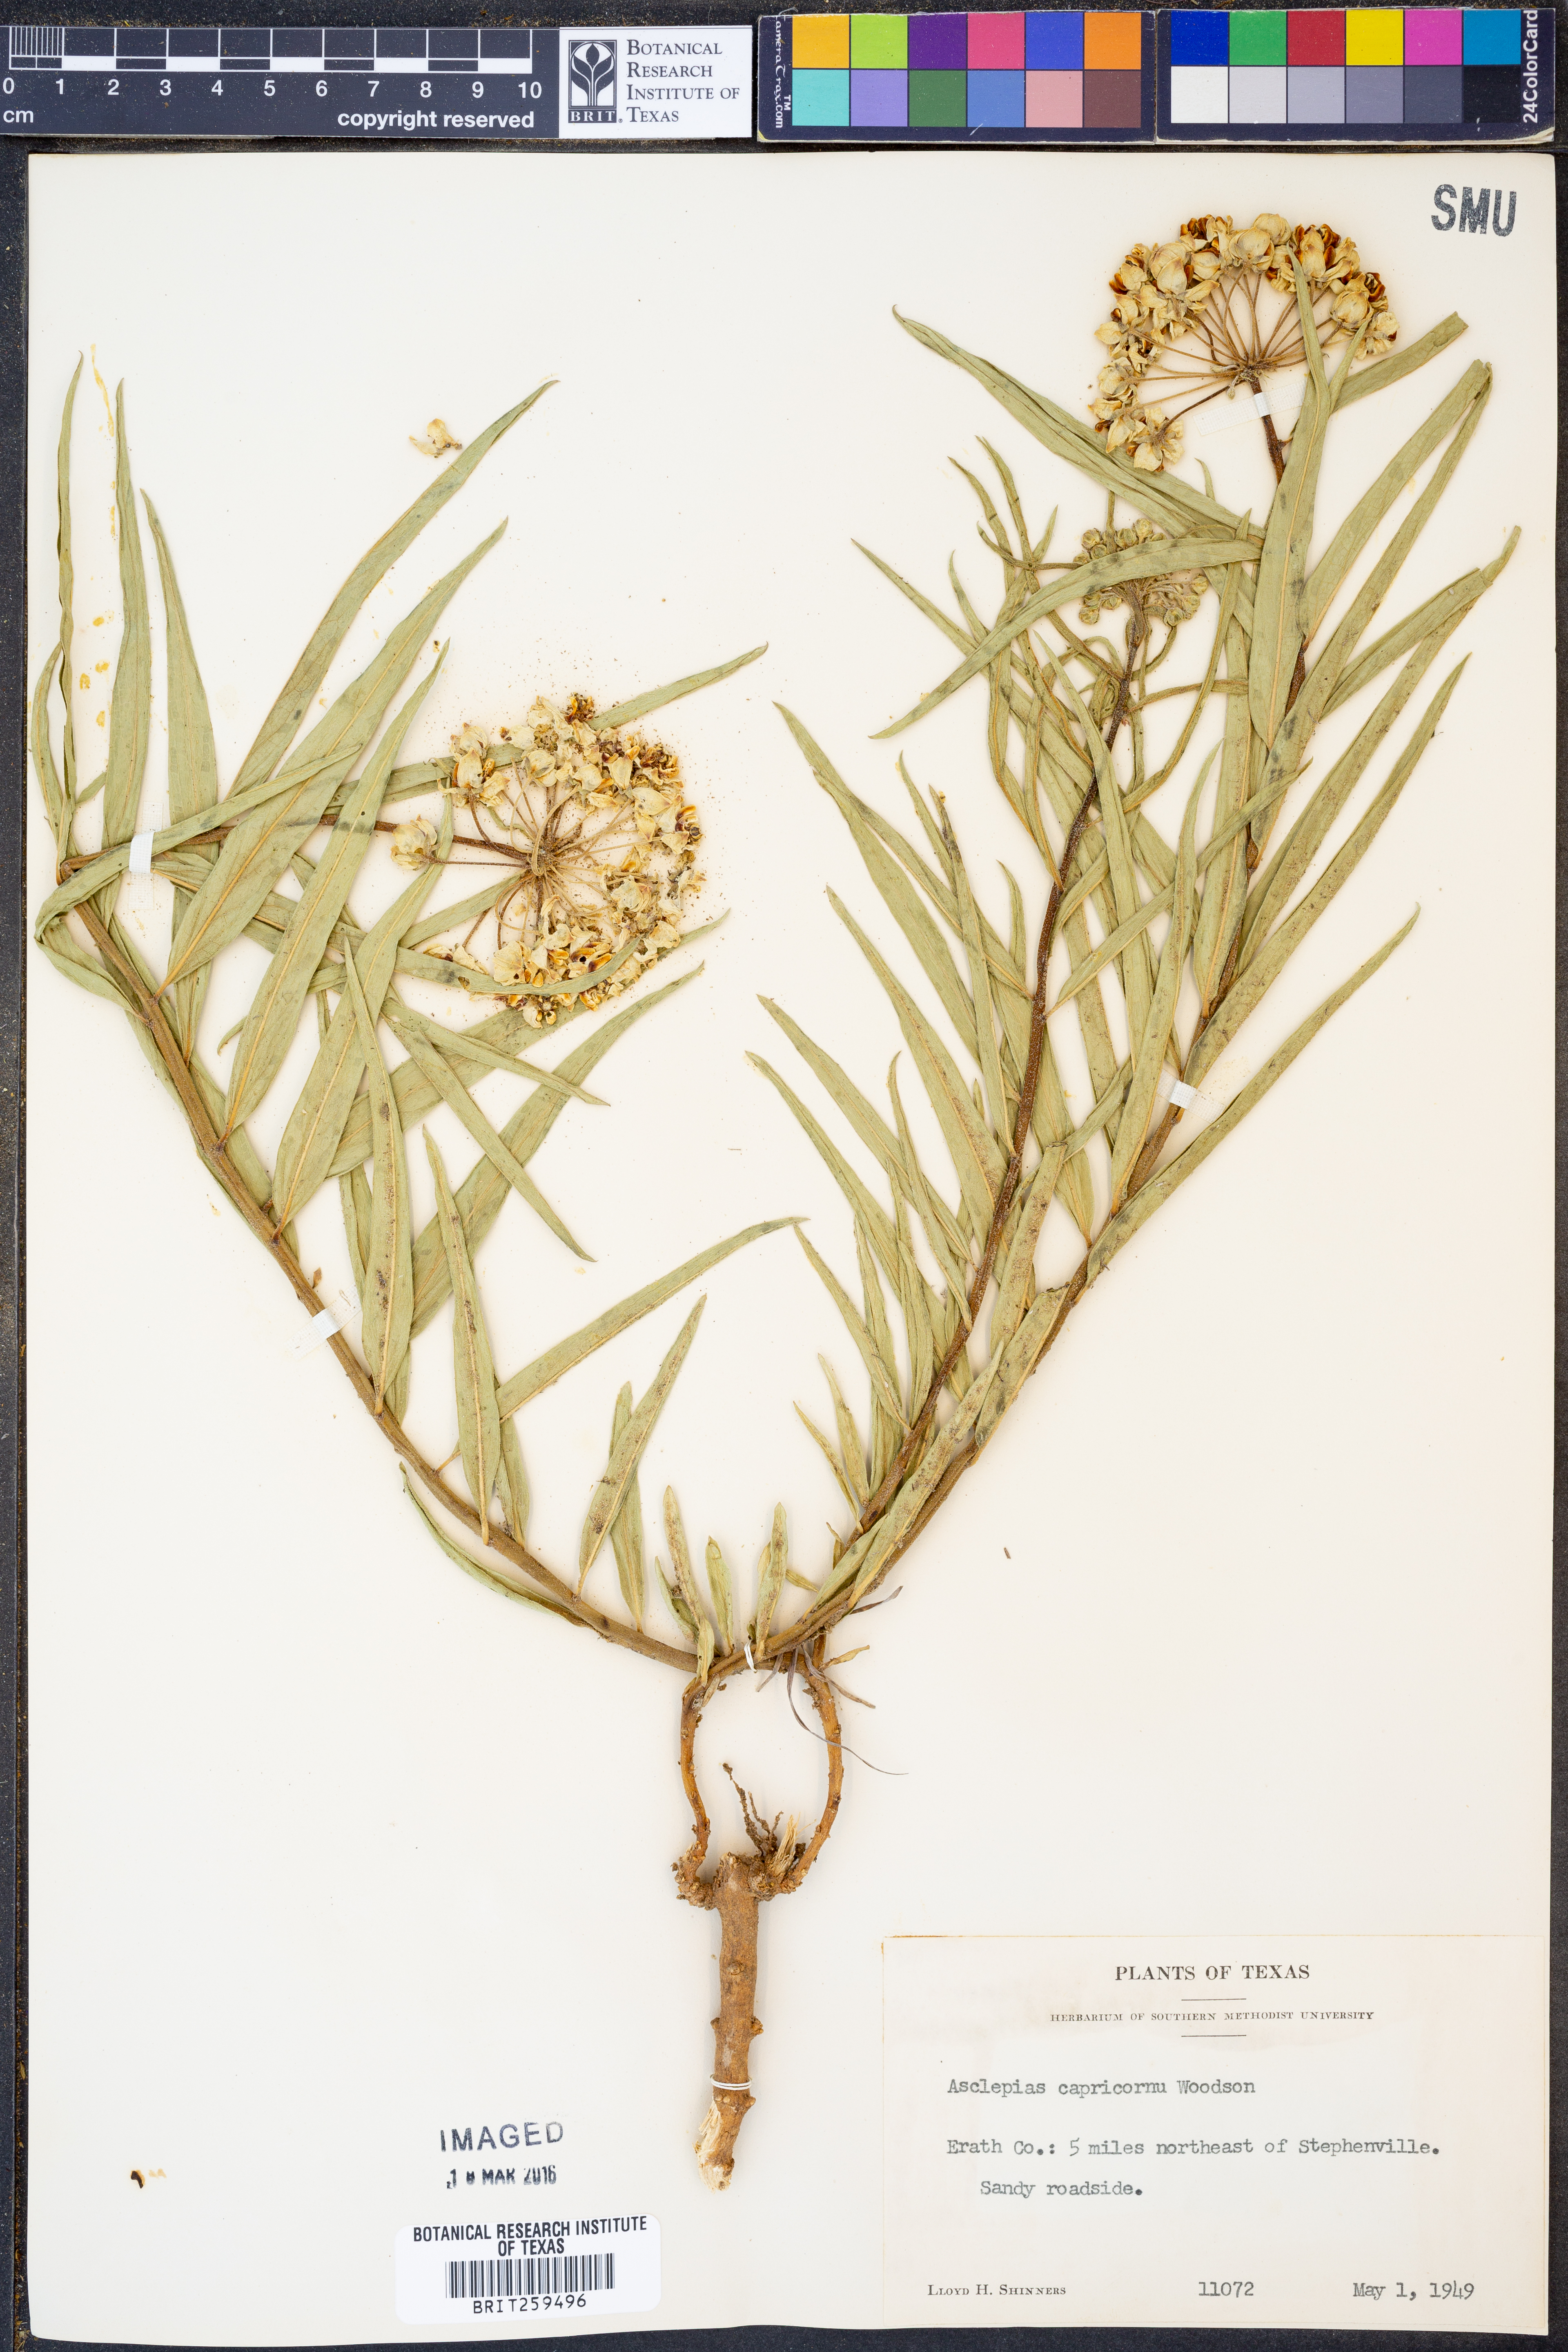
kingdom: Plantae
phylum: Tracheophyta
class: Magnoliopsida
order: Gentianales
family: Apocynaceae
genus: Asclepias
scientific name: Asclepias asperula
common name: Antelope horns
